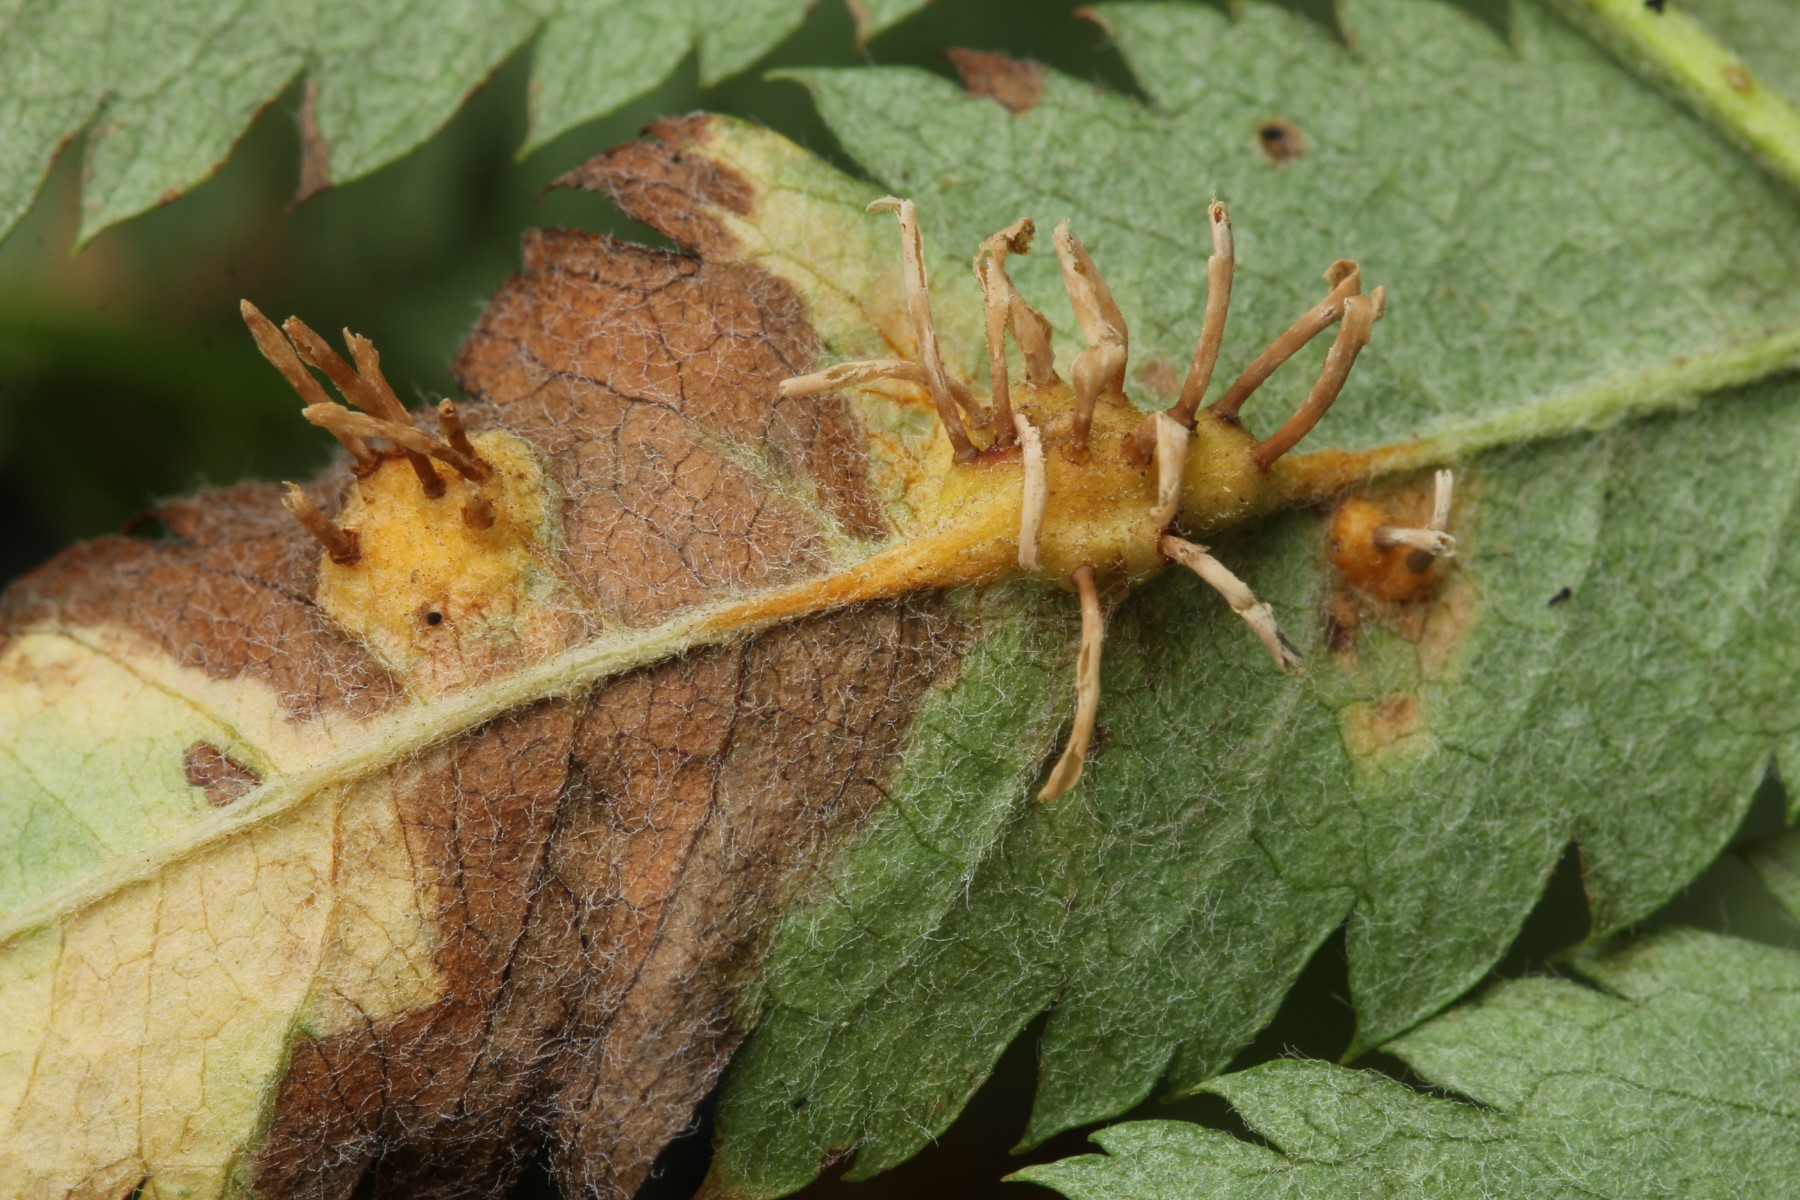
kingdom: Fungi
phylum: Basidiomycota
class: Pucciniomycetes
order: Pucciniales
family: Gymnosporangiaceae
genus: Gymnosporangium
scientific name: Gymnosporangium cornutum
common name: rønnehorn-bævrerust
